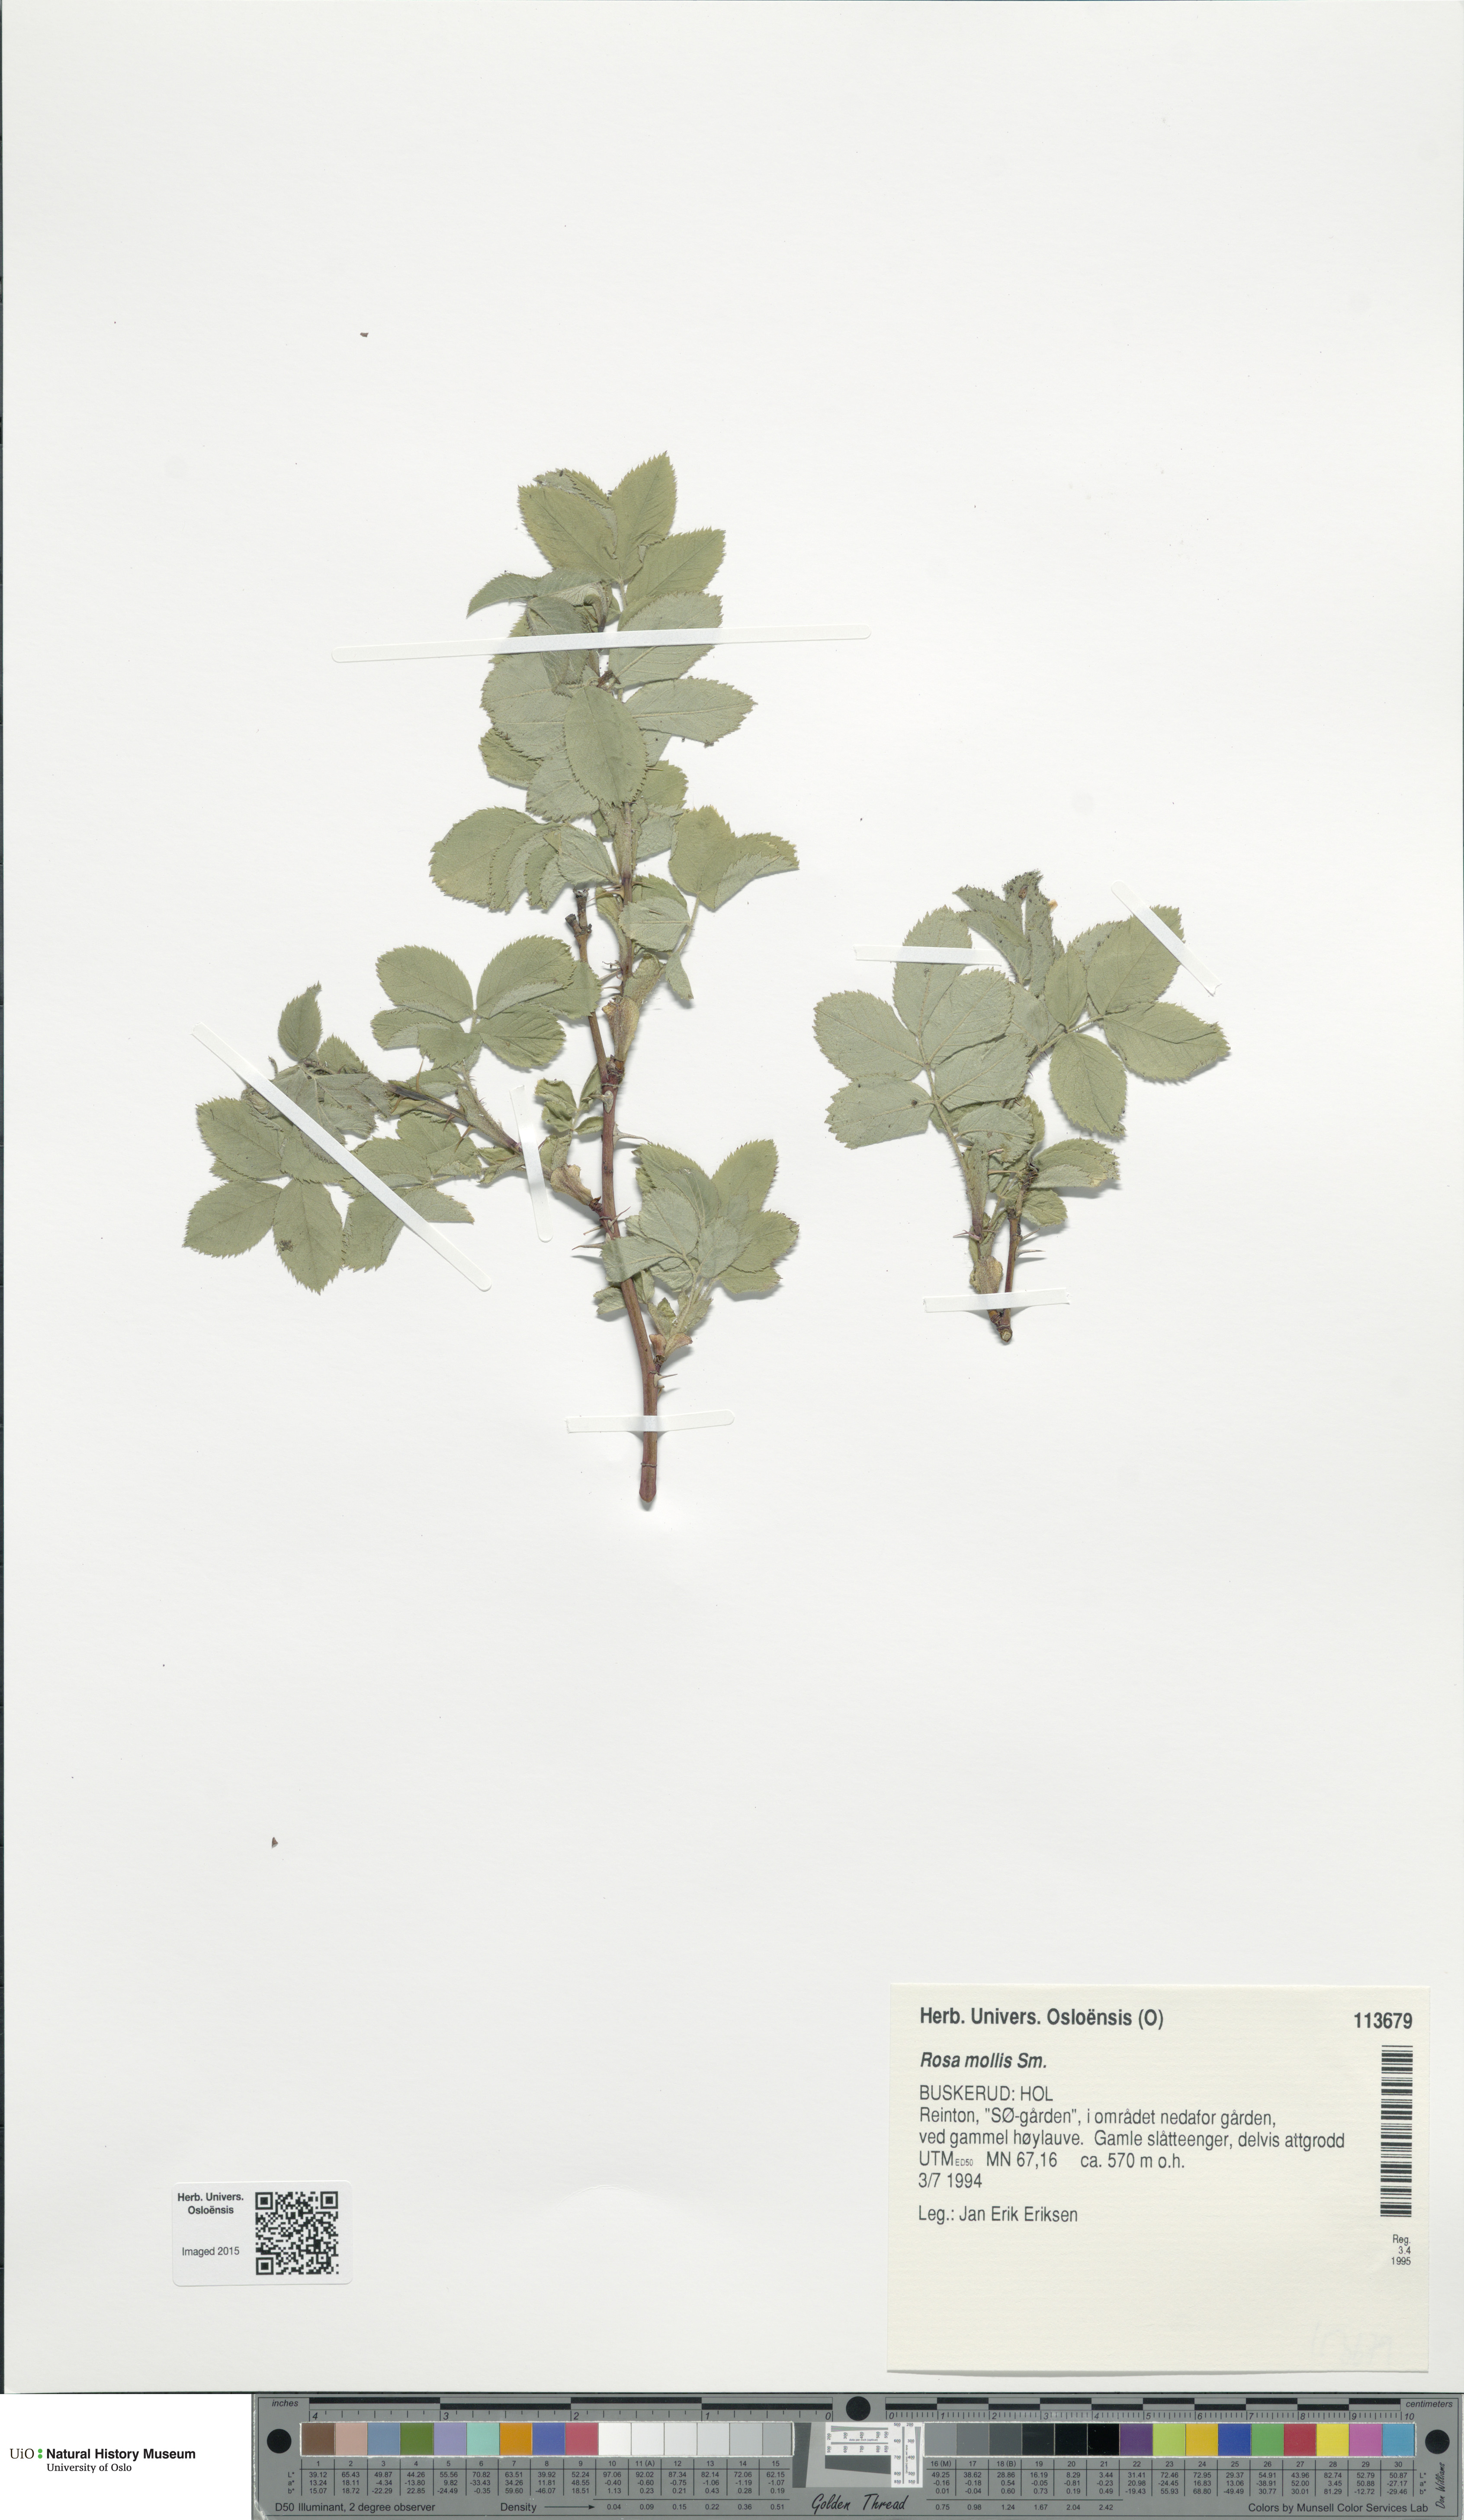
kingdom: Plantae
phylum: Tracheophyta
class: Magnoliopsida
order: Rosales
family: Rosaceae
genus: Rosa
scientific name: Rosa mollis
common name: Rose
